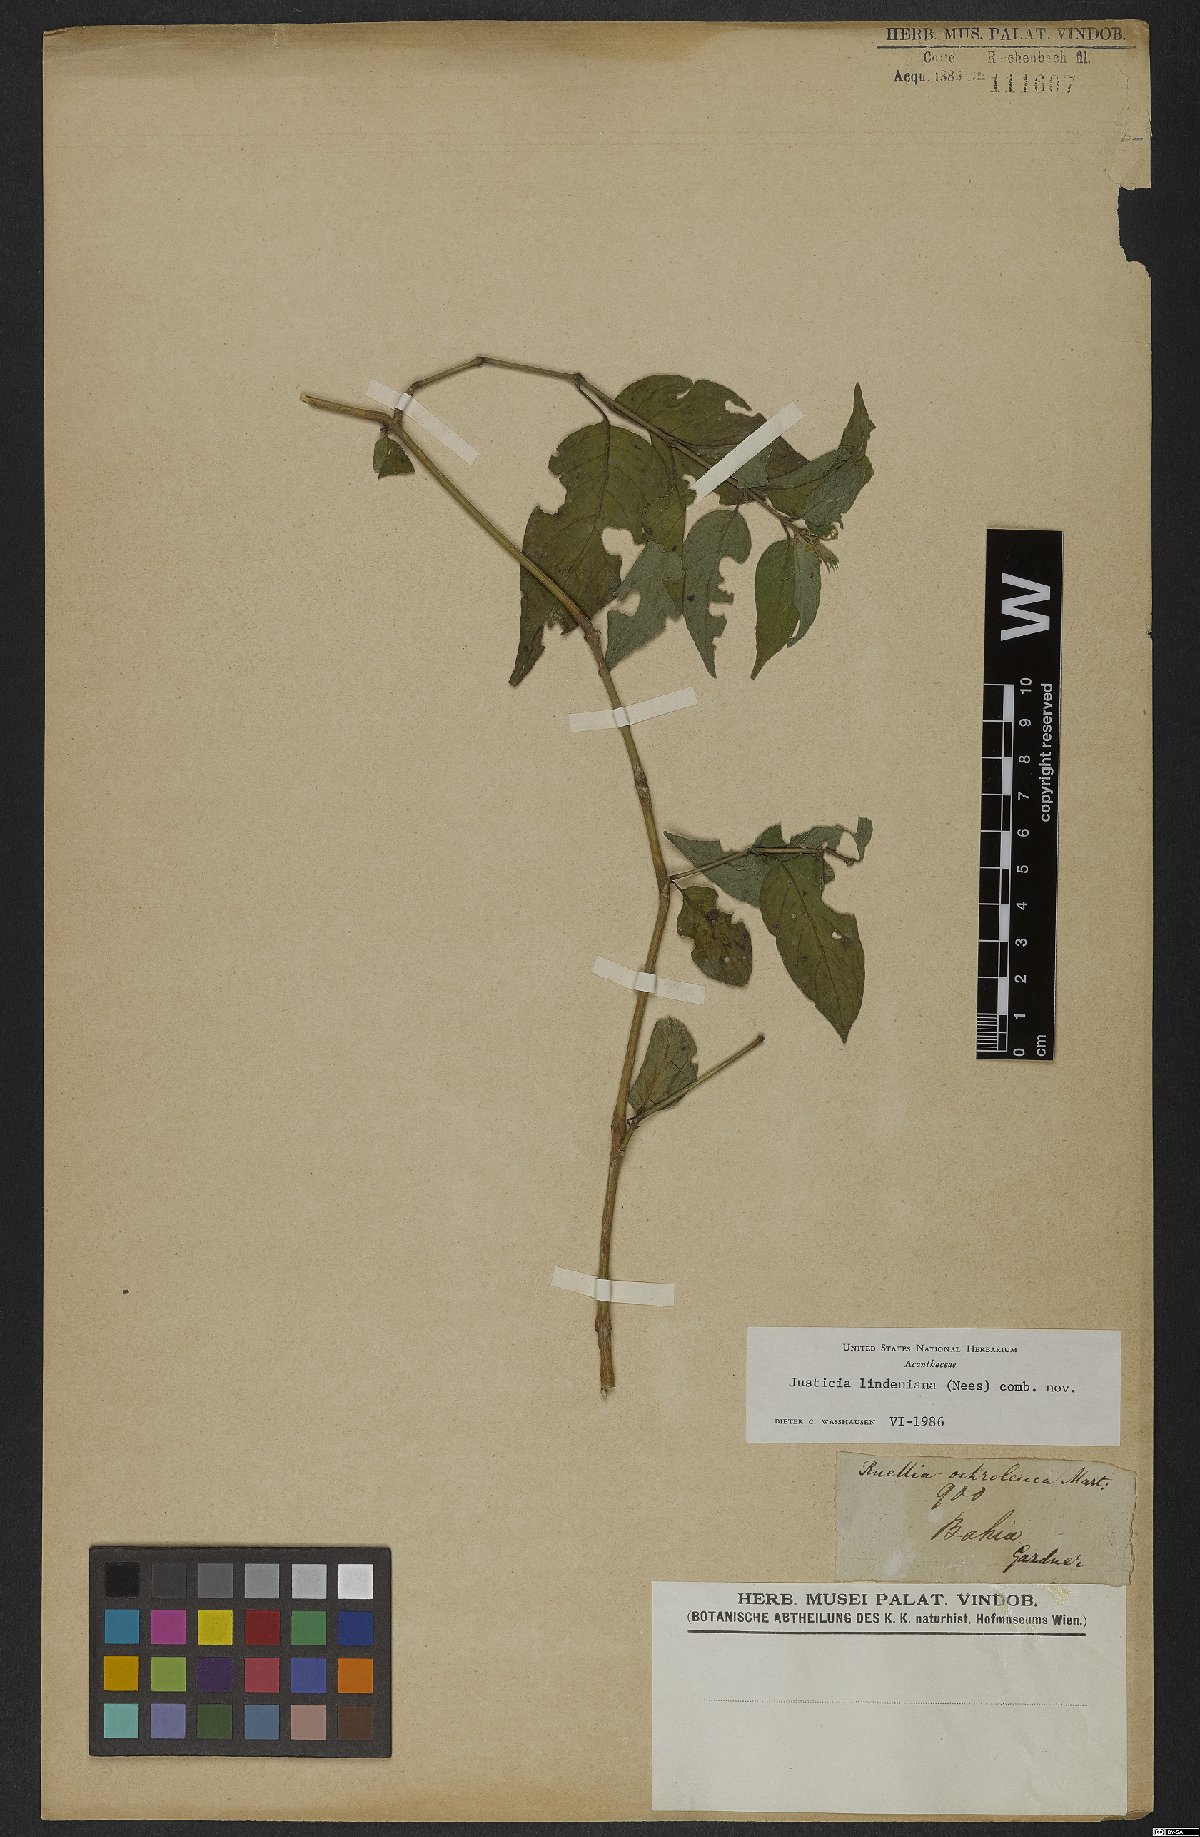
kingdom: Plantae
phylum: Tracheophyta
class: Magnoliopsida
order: Lamiales
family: Acanthaceae
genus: Dianthera
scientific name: Dianthera lindeniana
